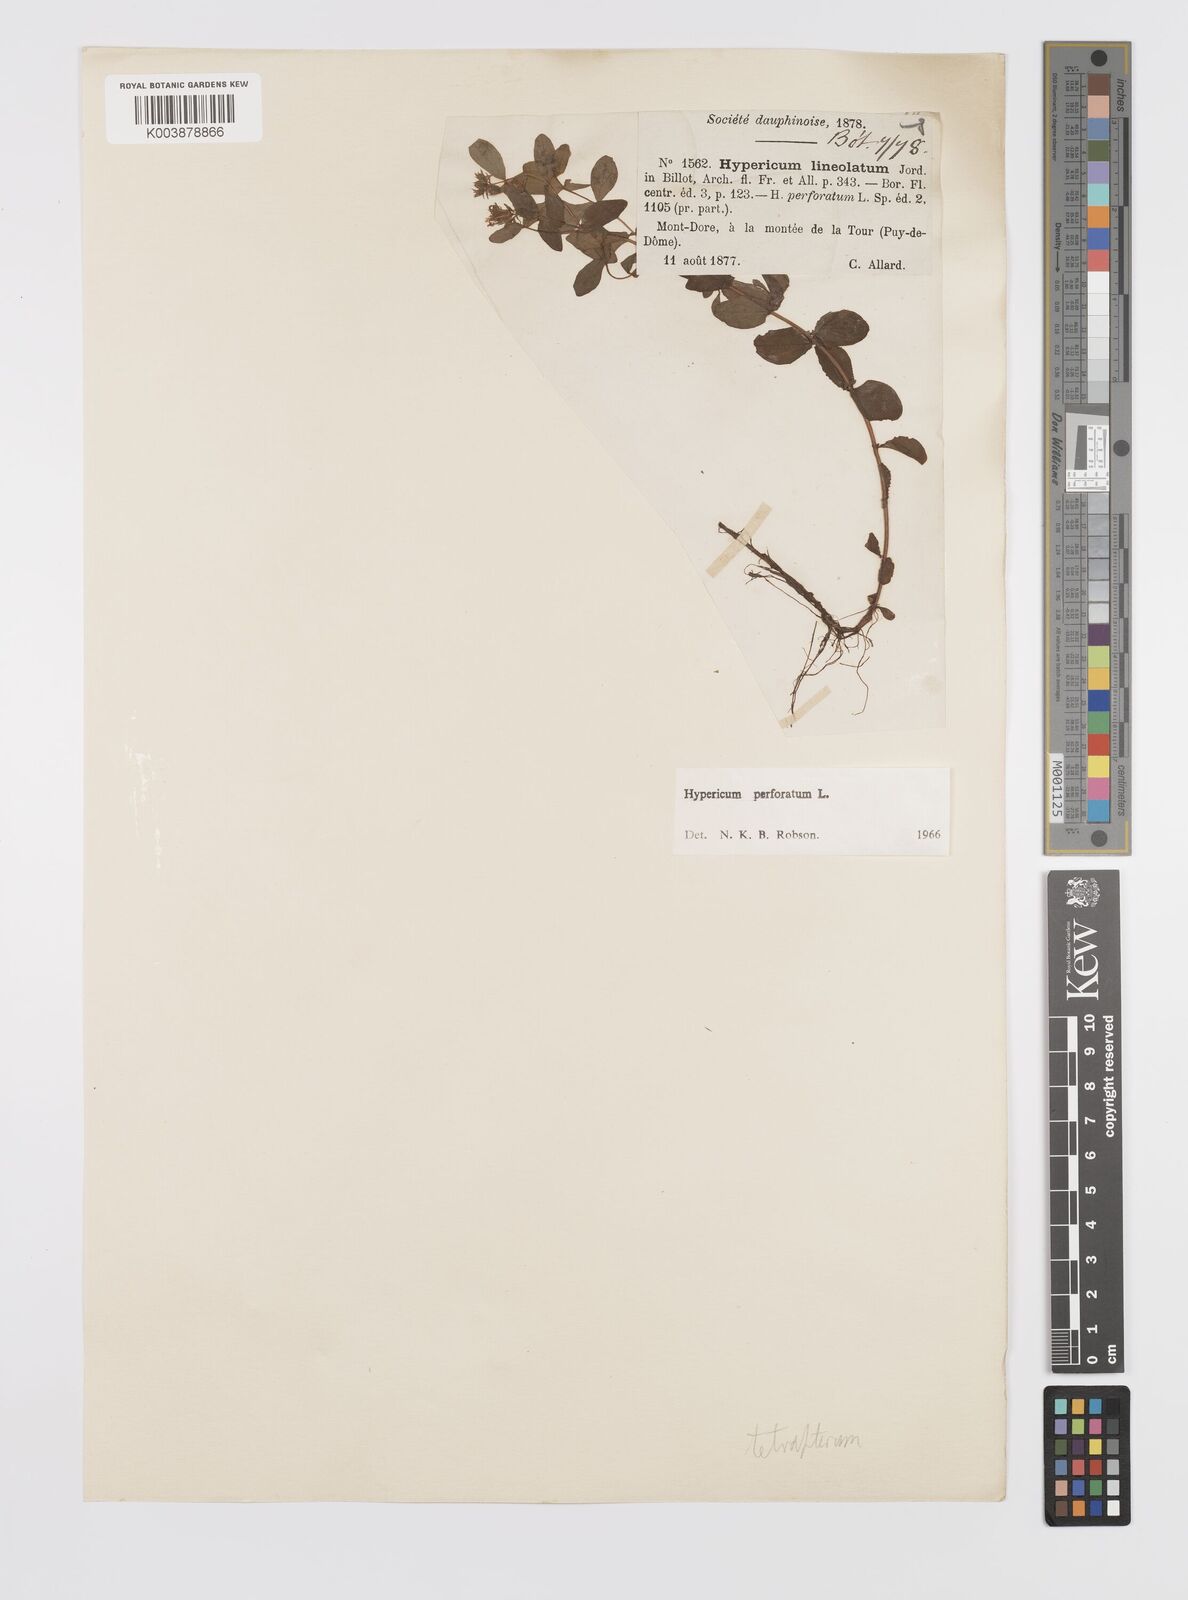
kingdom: Plantae
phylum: Tracheophyta
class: Magnoliopsida
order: Malpighiales
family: Hypericaceae
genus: Hypericum
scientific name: Hypericum tetrapterum
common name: Square-stalked st. john's-wort
